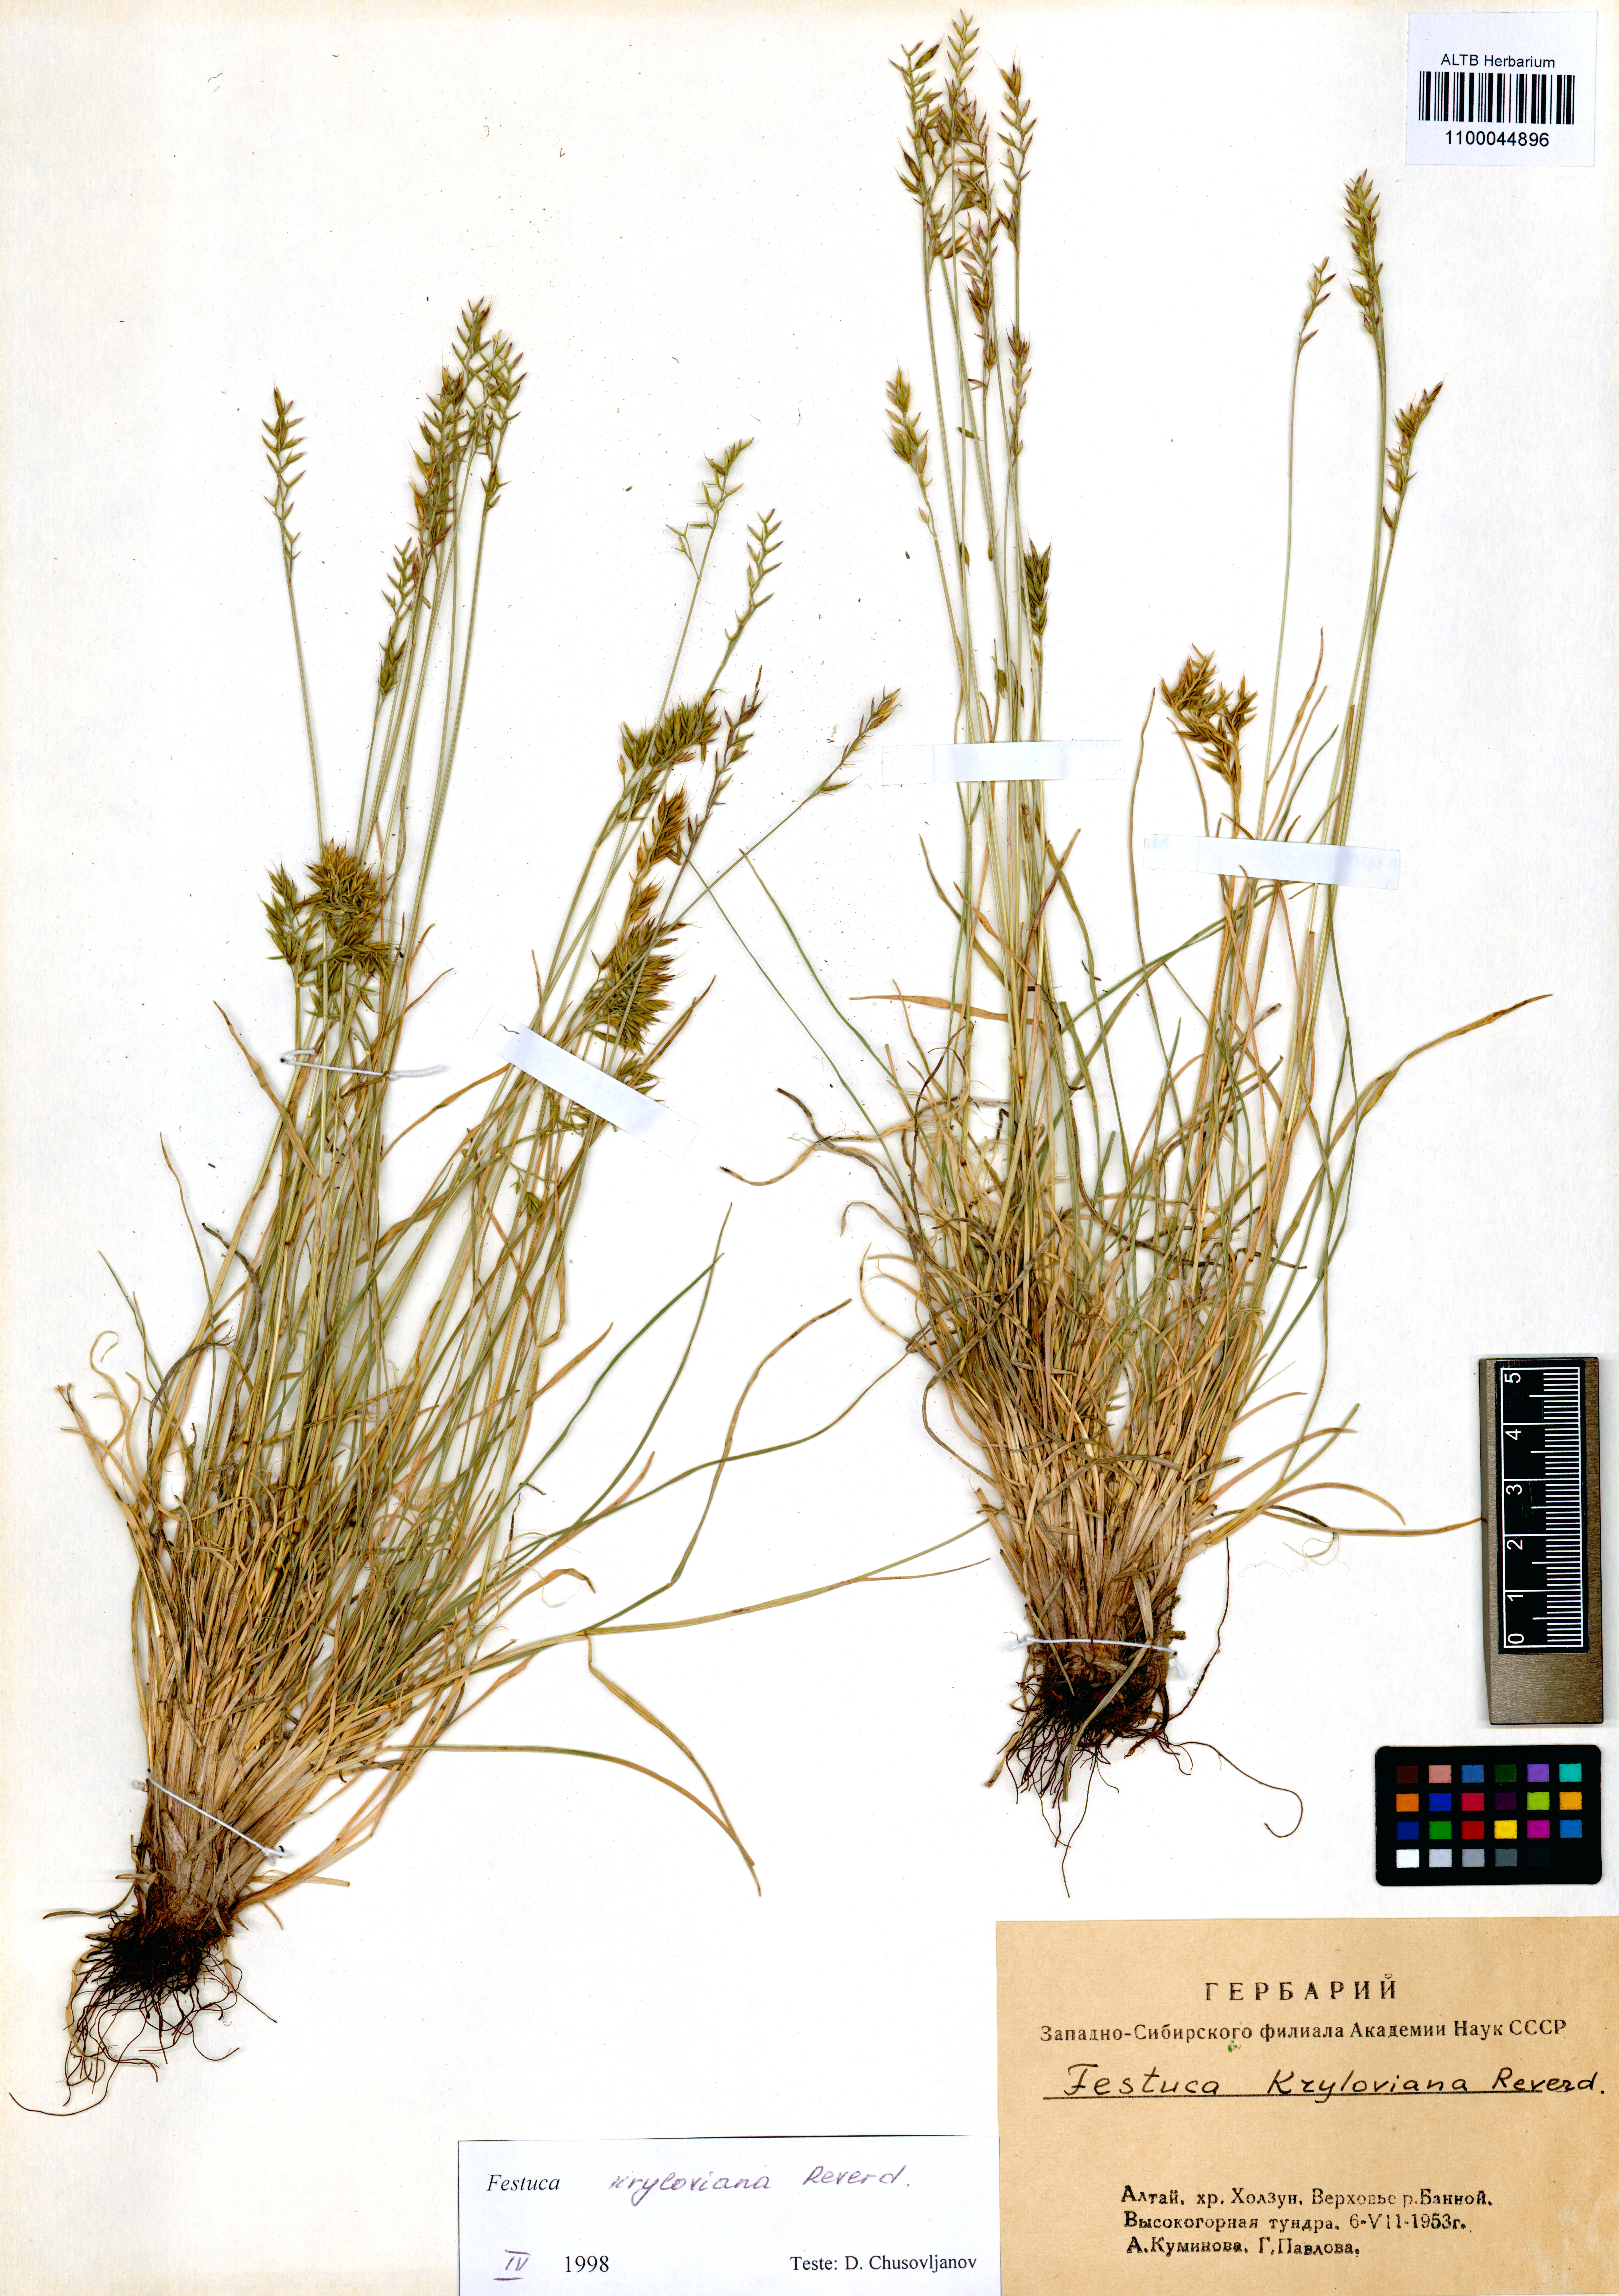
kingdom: Plantae
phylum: Tracheophyta
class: Liliopsida
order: Poales
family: Poaceae
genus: Festuca
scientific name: Festuca kryloviana
